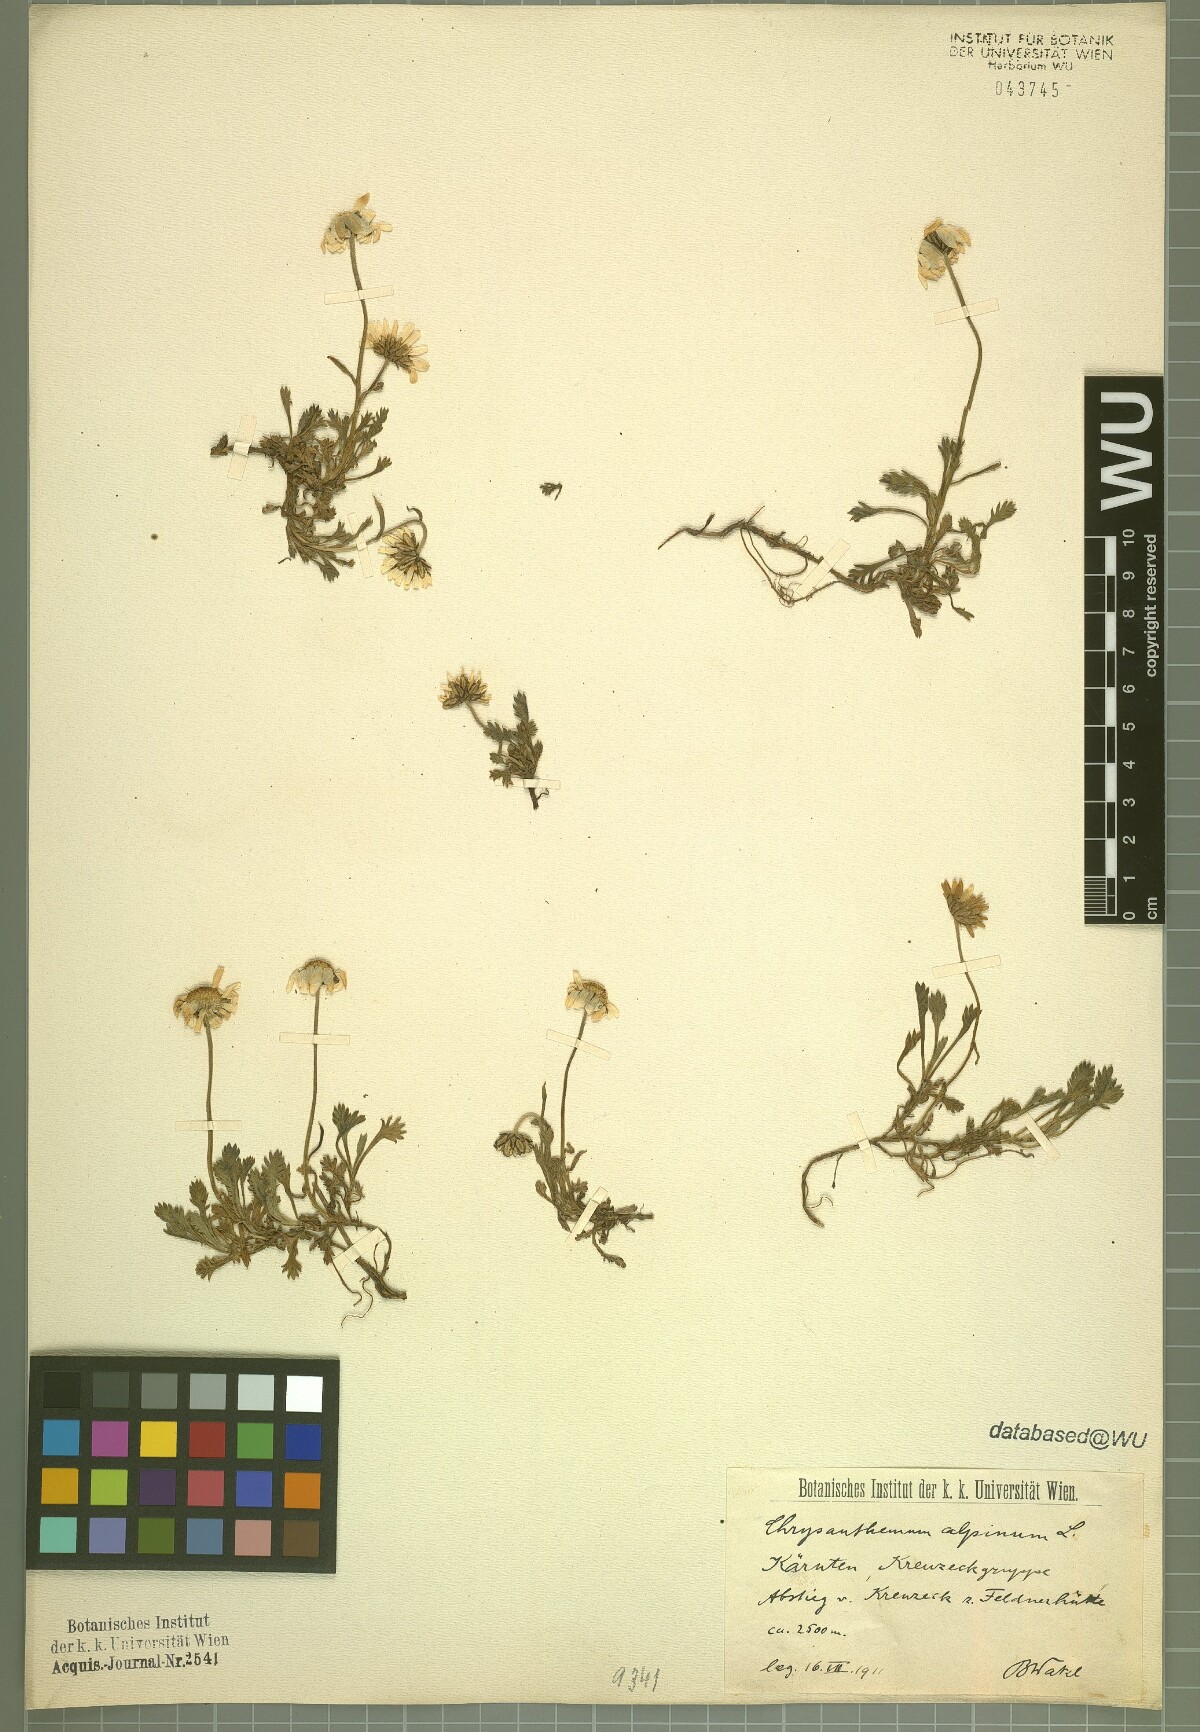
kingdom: Plantae
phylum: Tracheophyta
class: Magnoliopsida
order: Asterales
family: Asteraceae
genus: Leucanthemopsis
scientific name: Leucanthemopsis alpina
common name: Alpine moon daisy
